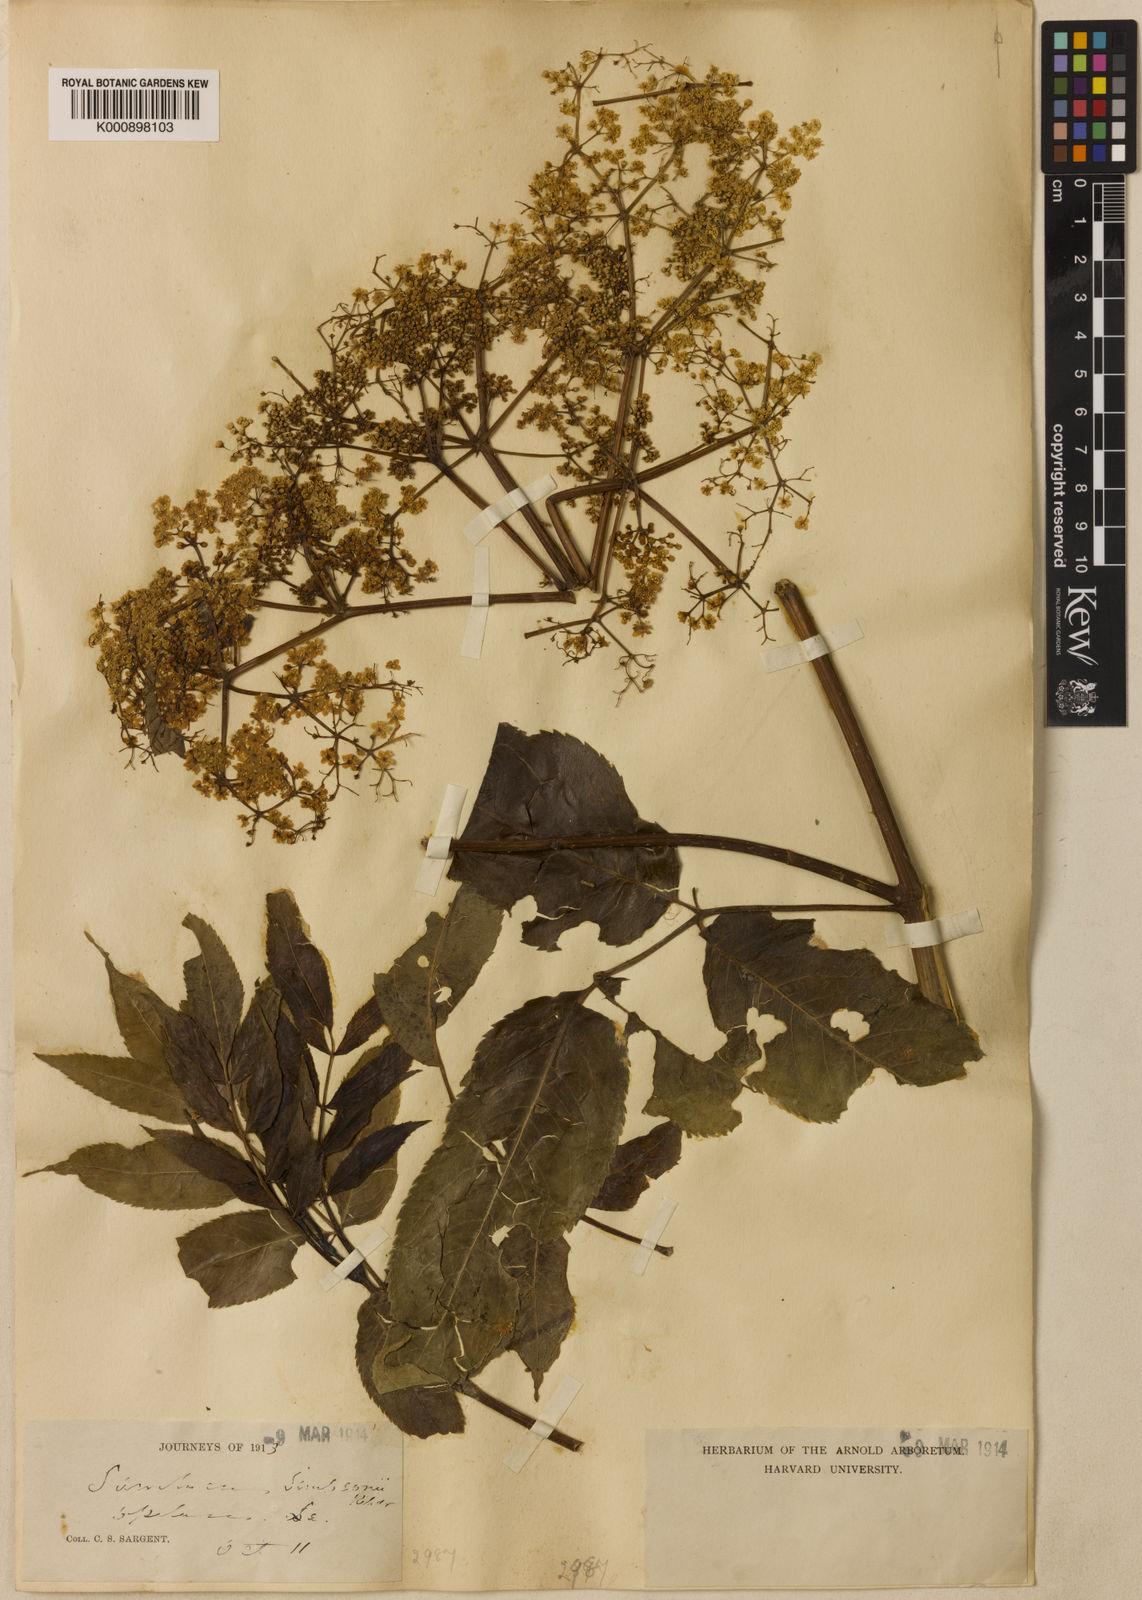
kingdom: Plantae
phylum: Tracheophyta
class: Magnoliopsida
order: Dipsacales
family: Viburnaceae
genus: Sambucus
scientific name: Sambucus canadensis
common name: American elder
